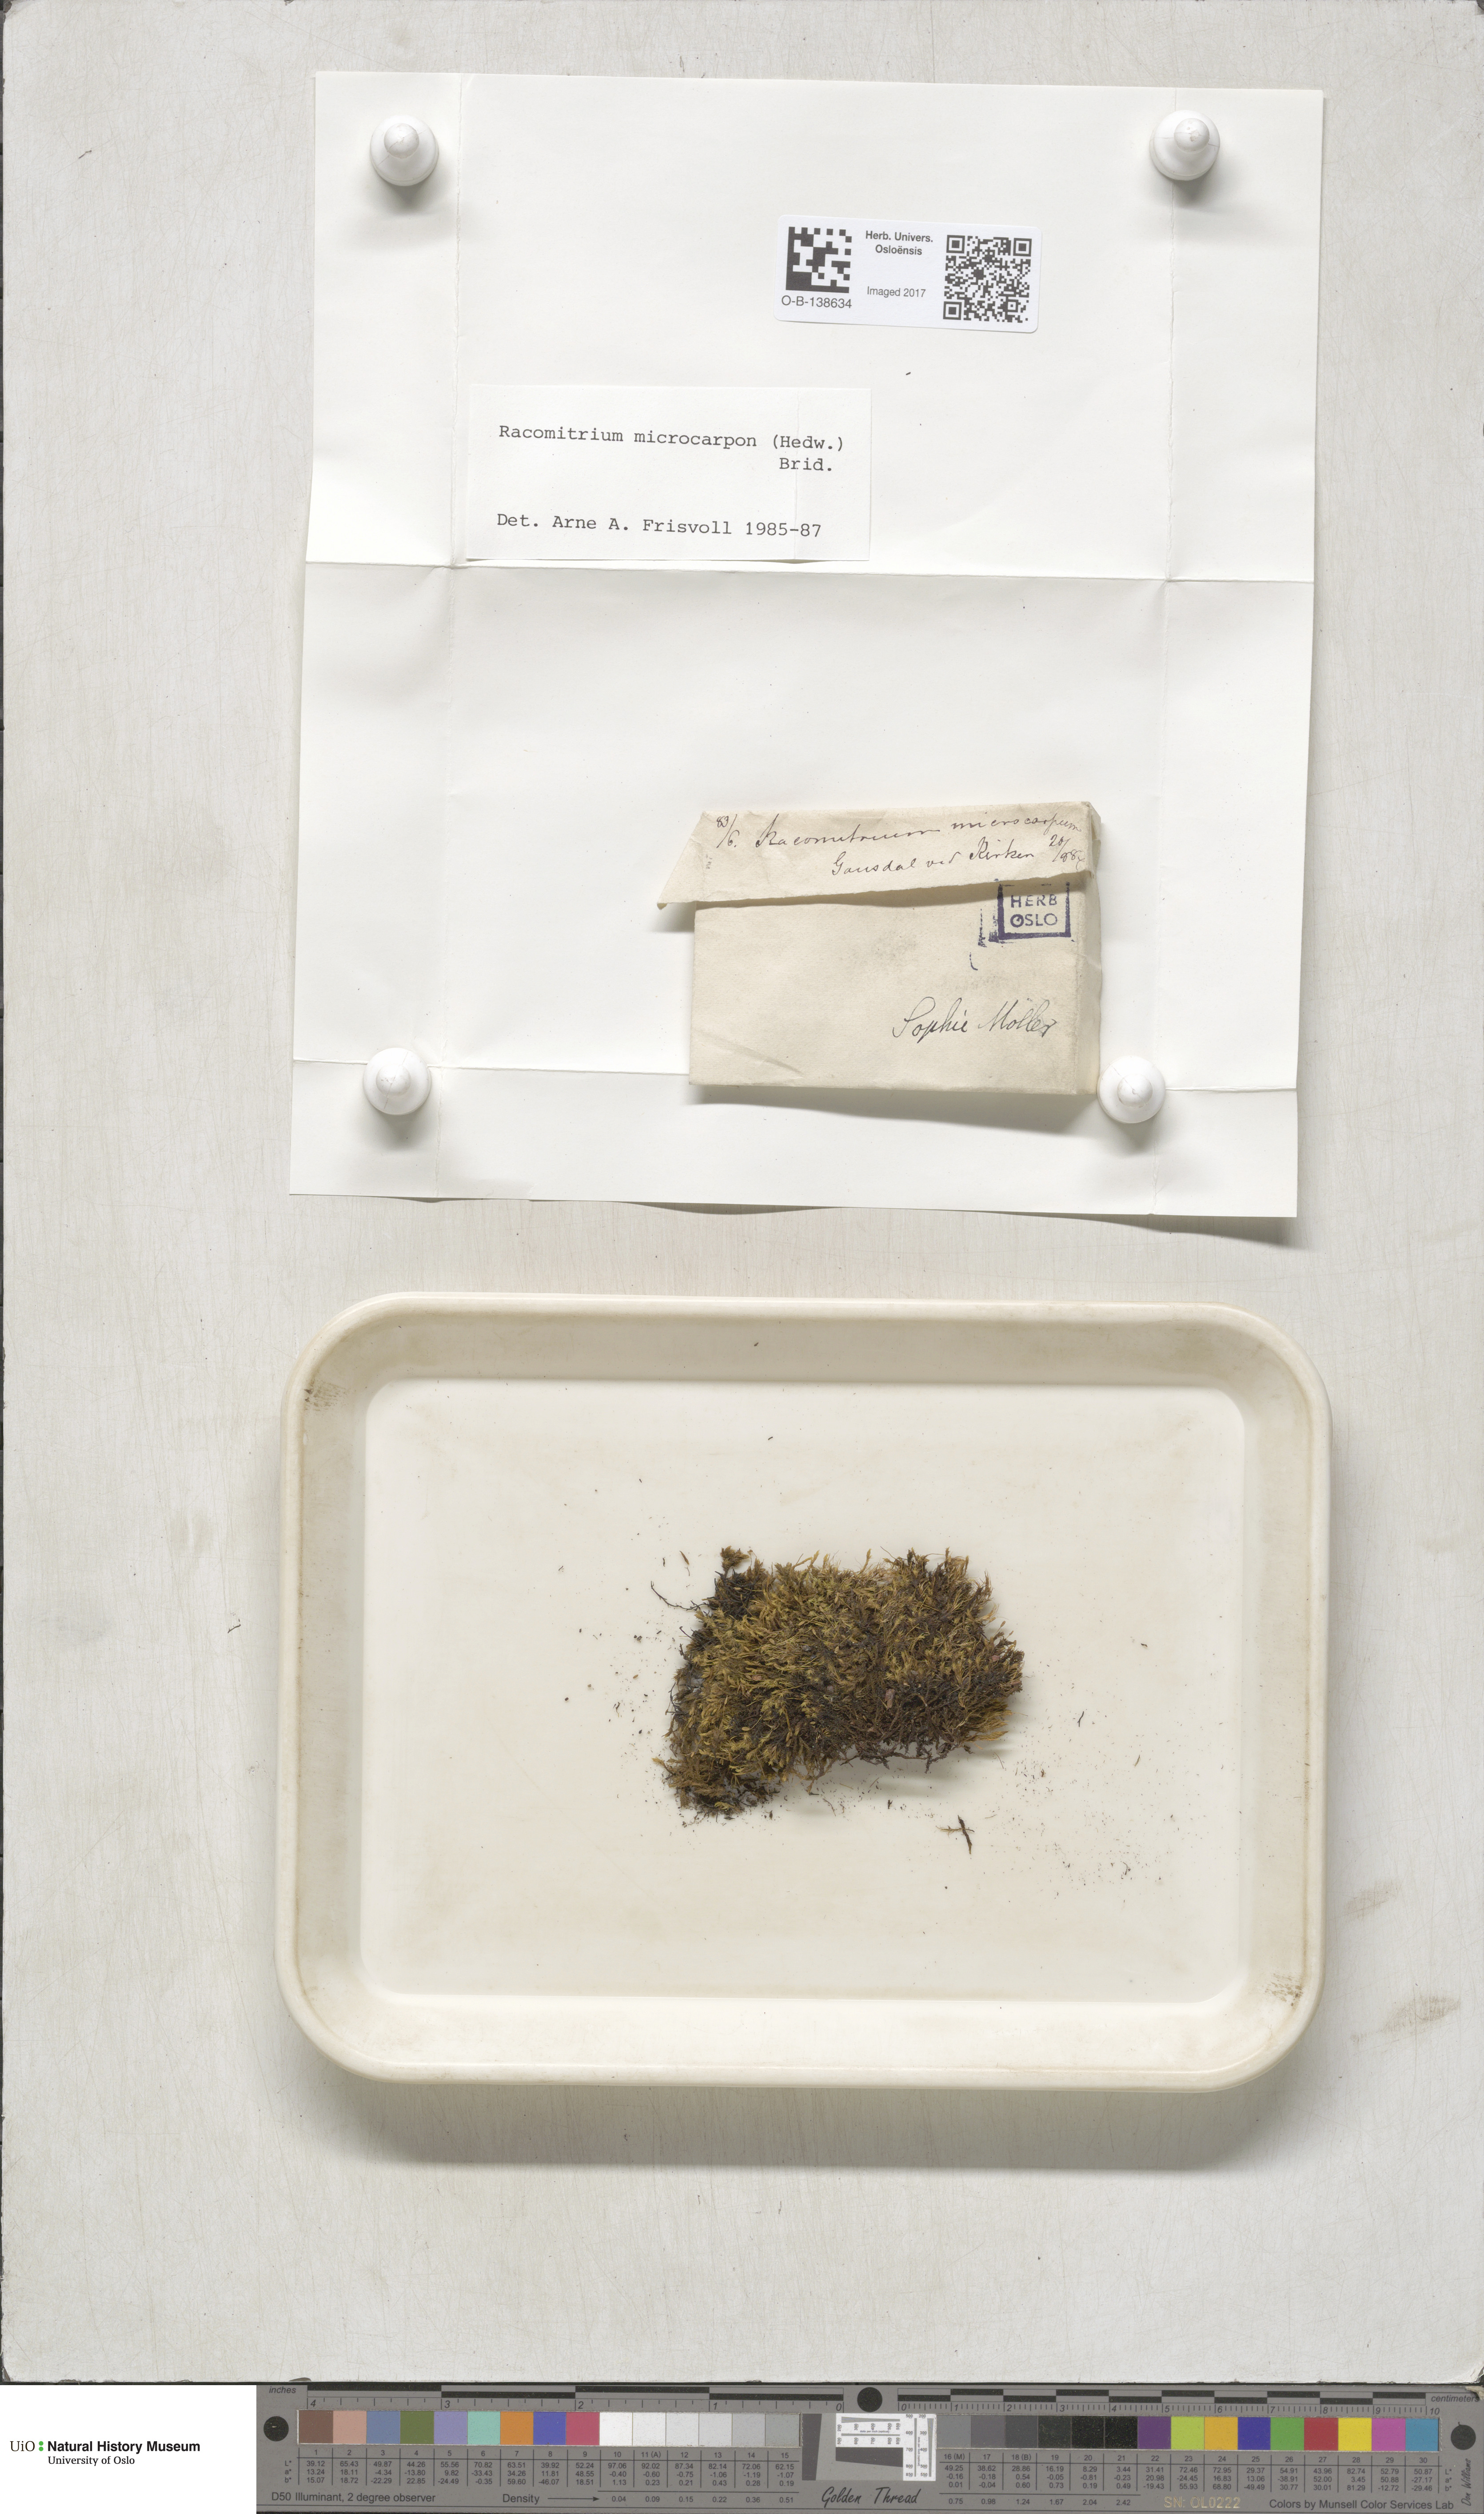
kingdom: Plantae
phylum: Bryophyta
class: Bryopsida
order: Grimmiales
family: Grimmiaceae
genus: Bucklandiella
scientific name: Bucklandiella microcarpos
